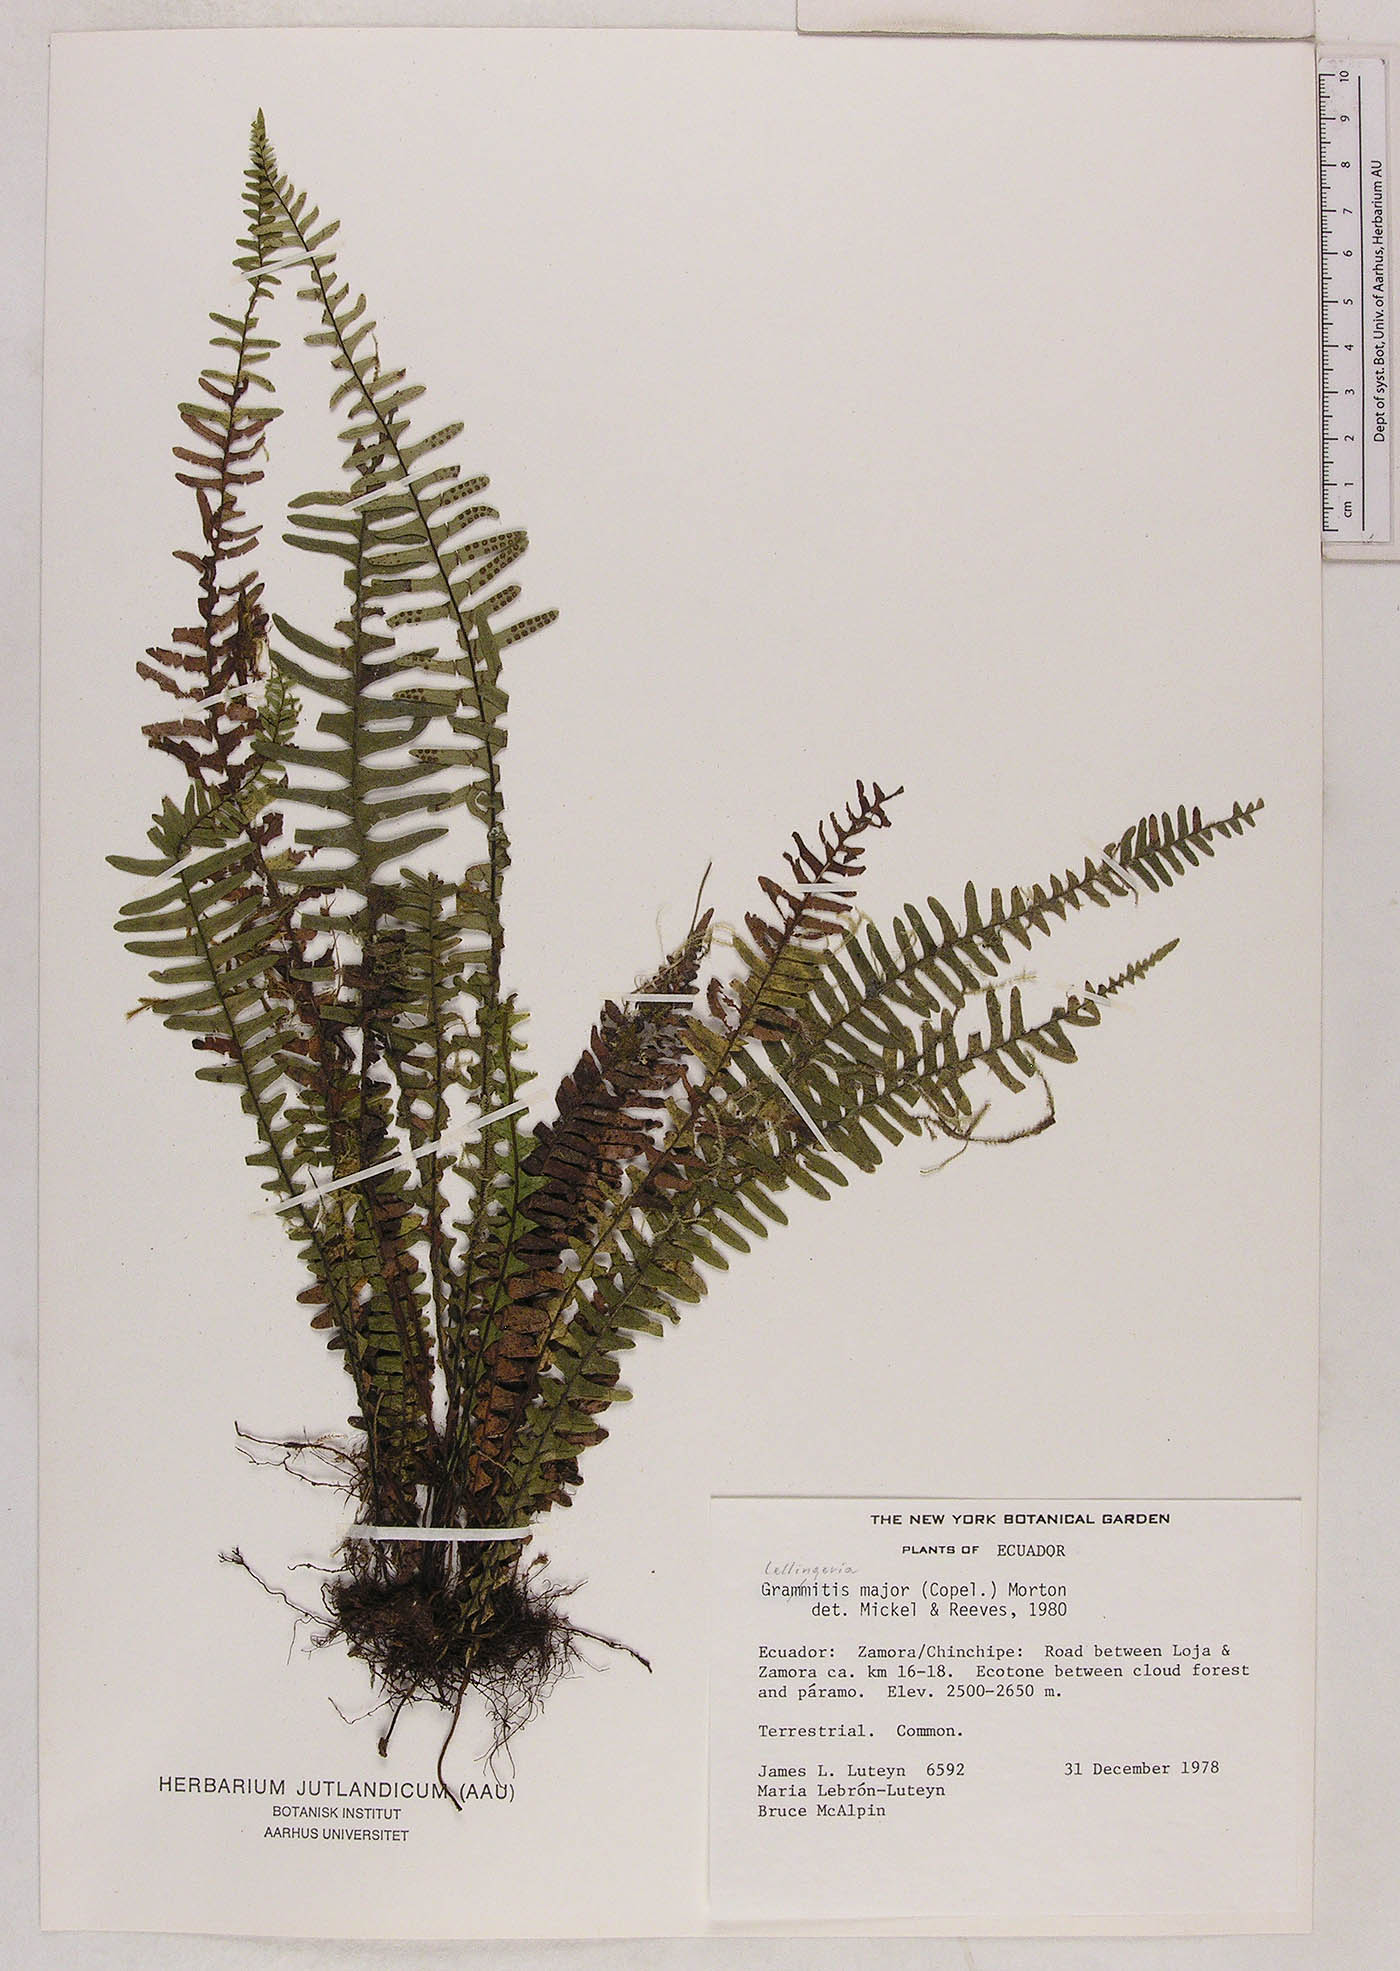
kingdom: Plantae
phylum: Tracheophyta
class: Polypodiopsida
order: Polypodiales
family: Polypodiaceae
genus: Lellingeria
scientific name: Lellingeria major
